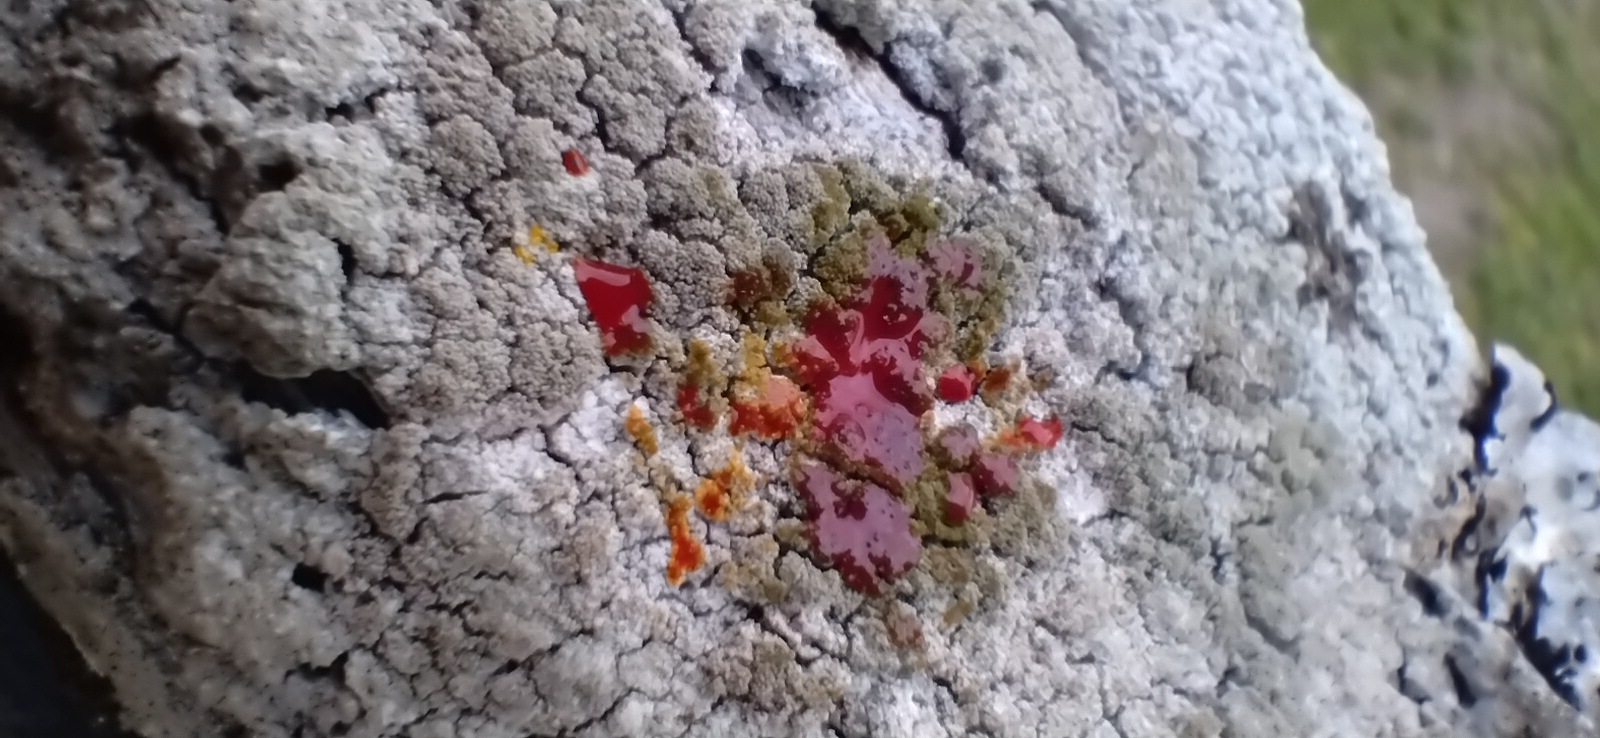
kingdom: Fungi
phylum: Ascomycota
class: Lecanoromycetes
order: Pertusariales
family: Pertusariaceae
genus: Pertusaria
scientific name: Pertusaria coccodes
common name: skurvet prikvortelav
